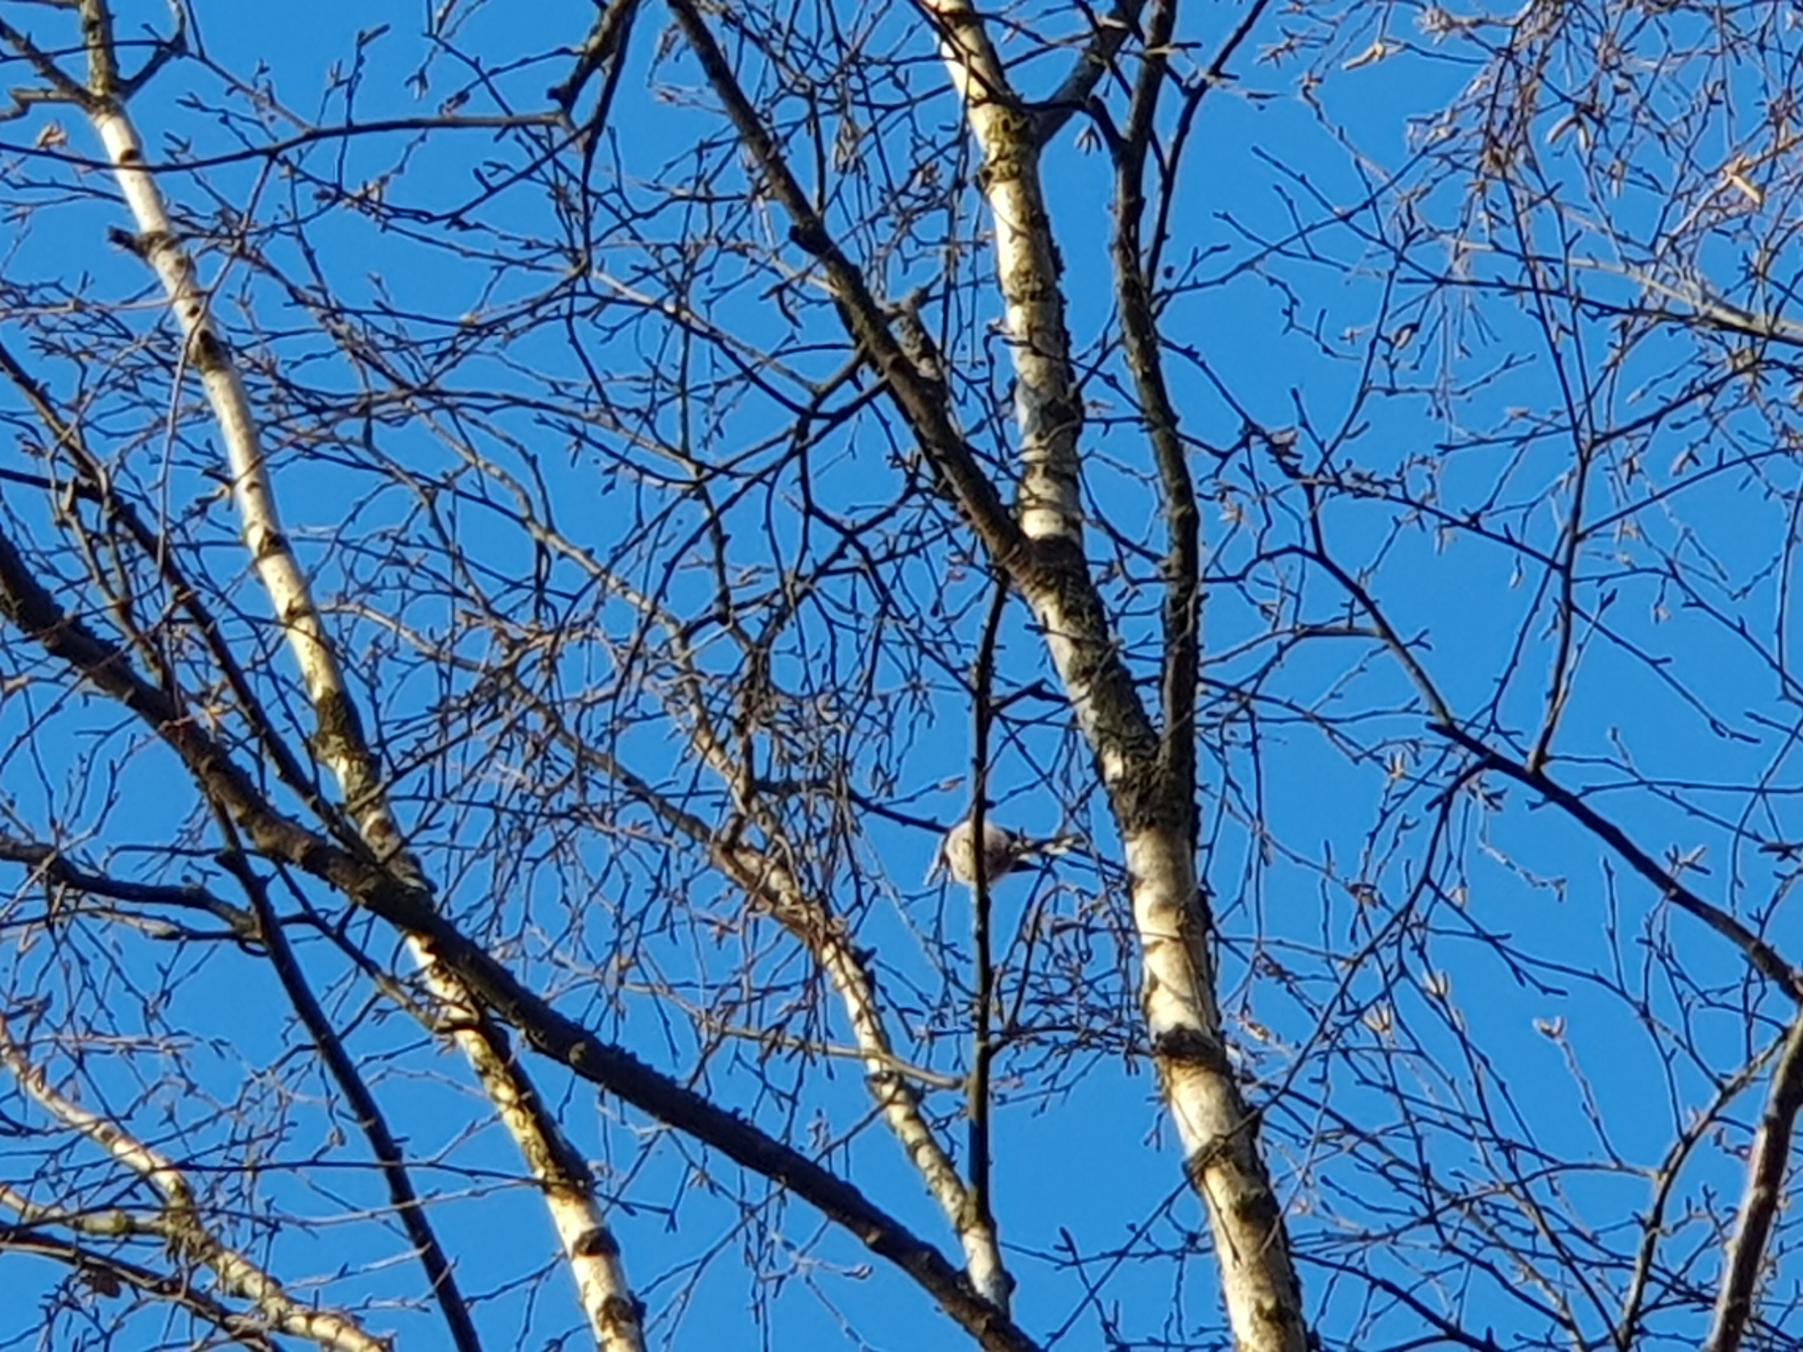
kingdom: Animalia
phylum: Chordata
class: Aves
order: Passeriformes
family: Aegithalidae
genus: Aegithalos
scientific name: Aegithalos caudatus
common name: Halemejse
